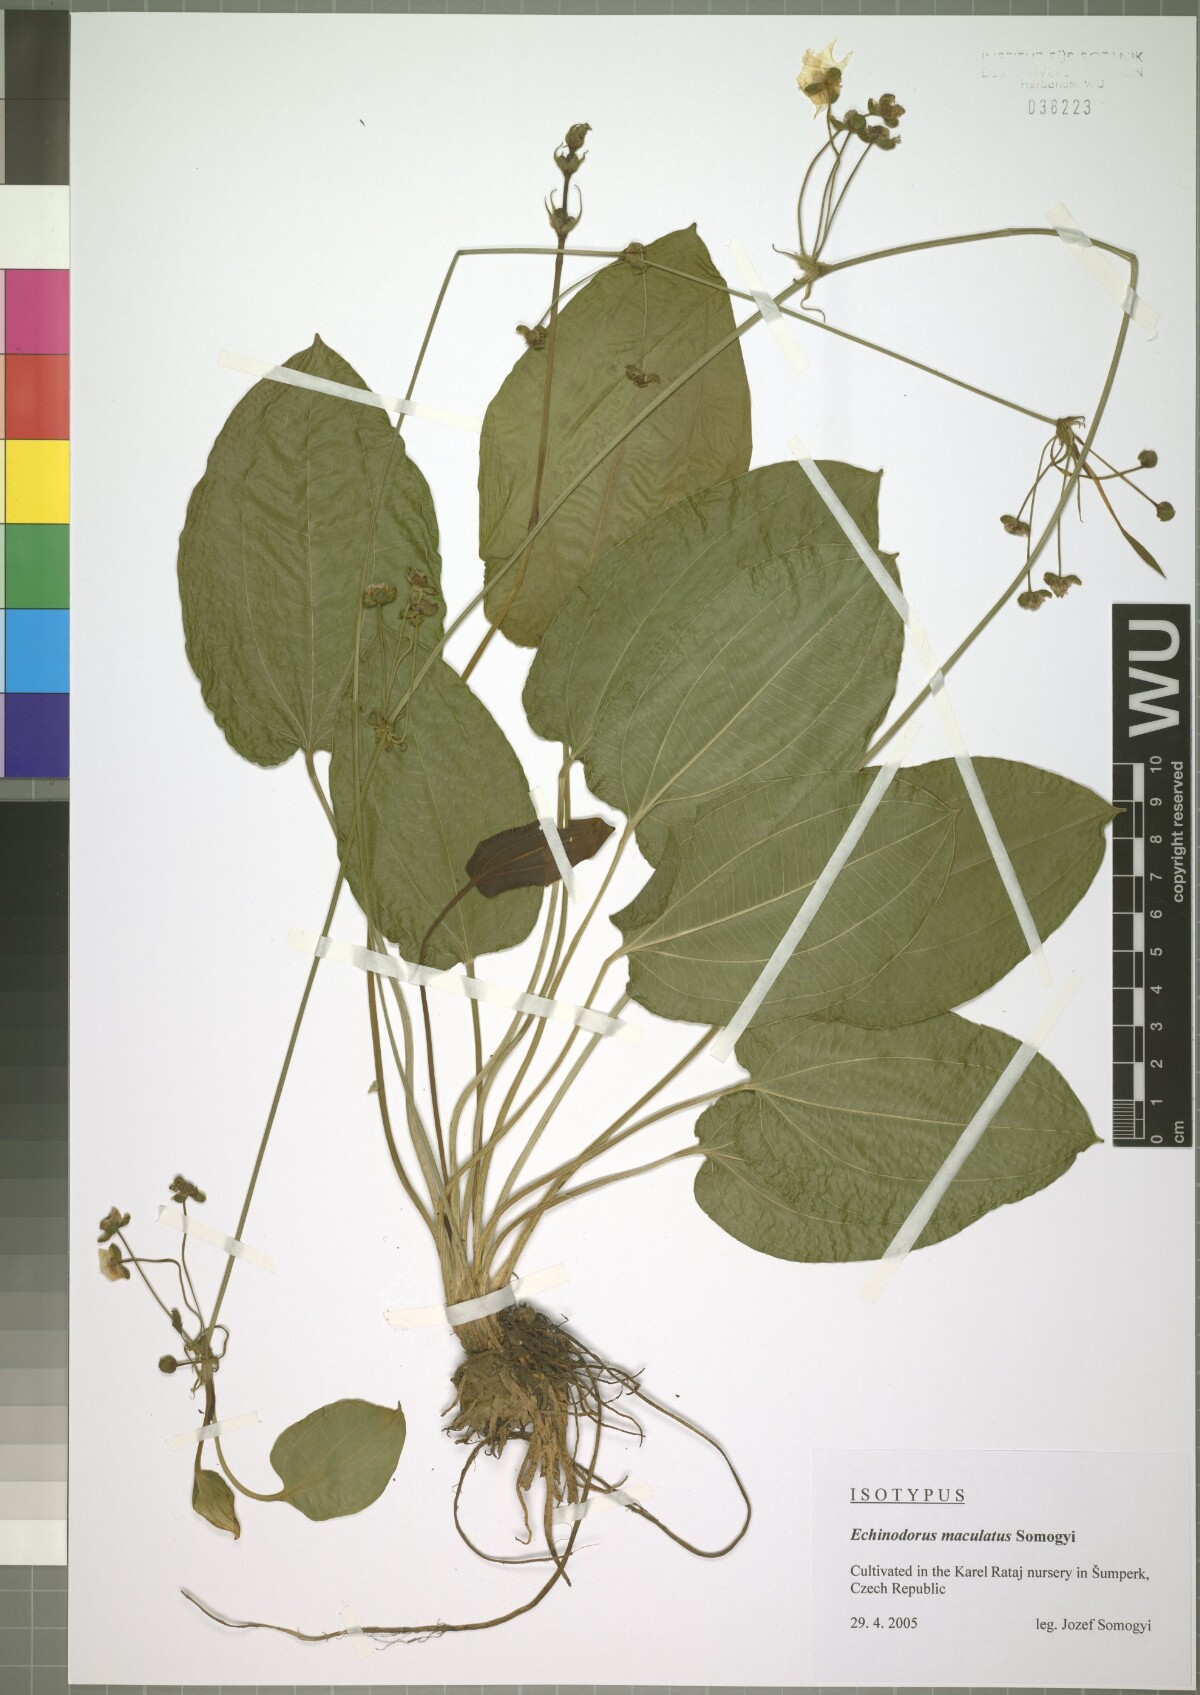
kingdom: Plantae
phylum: Tracheophyta
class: Liliopsida
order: Alismatales
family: Alismataceae
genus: Echinodorus
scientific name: Echinodorus maculatus
